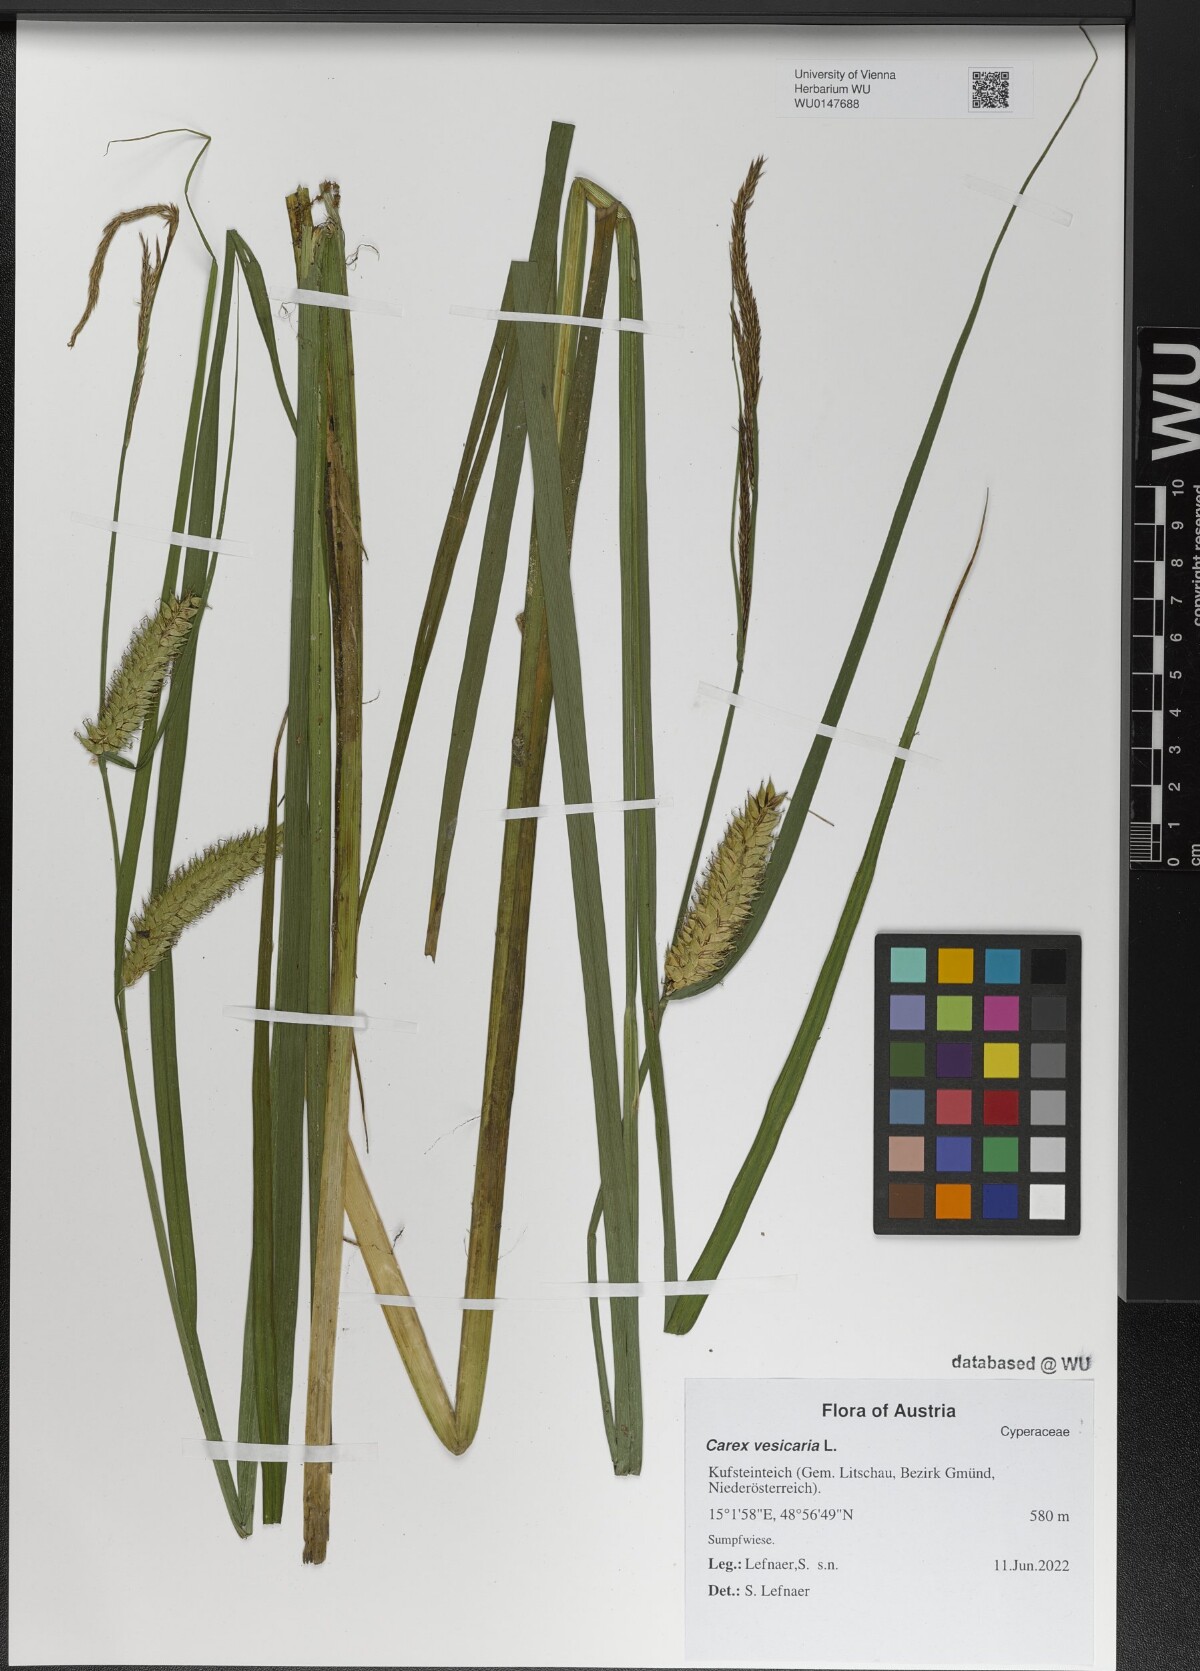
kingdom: Plantae
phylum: Tracheophyta
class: Liliopsida
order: Poales
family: Cyperaceae
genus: Carex
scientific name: Carex vesicaria
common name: Bladder-sedge
